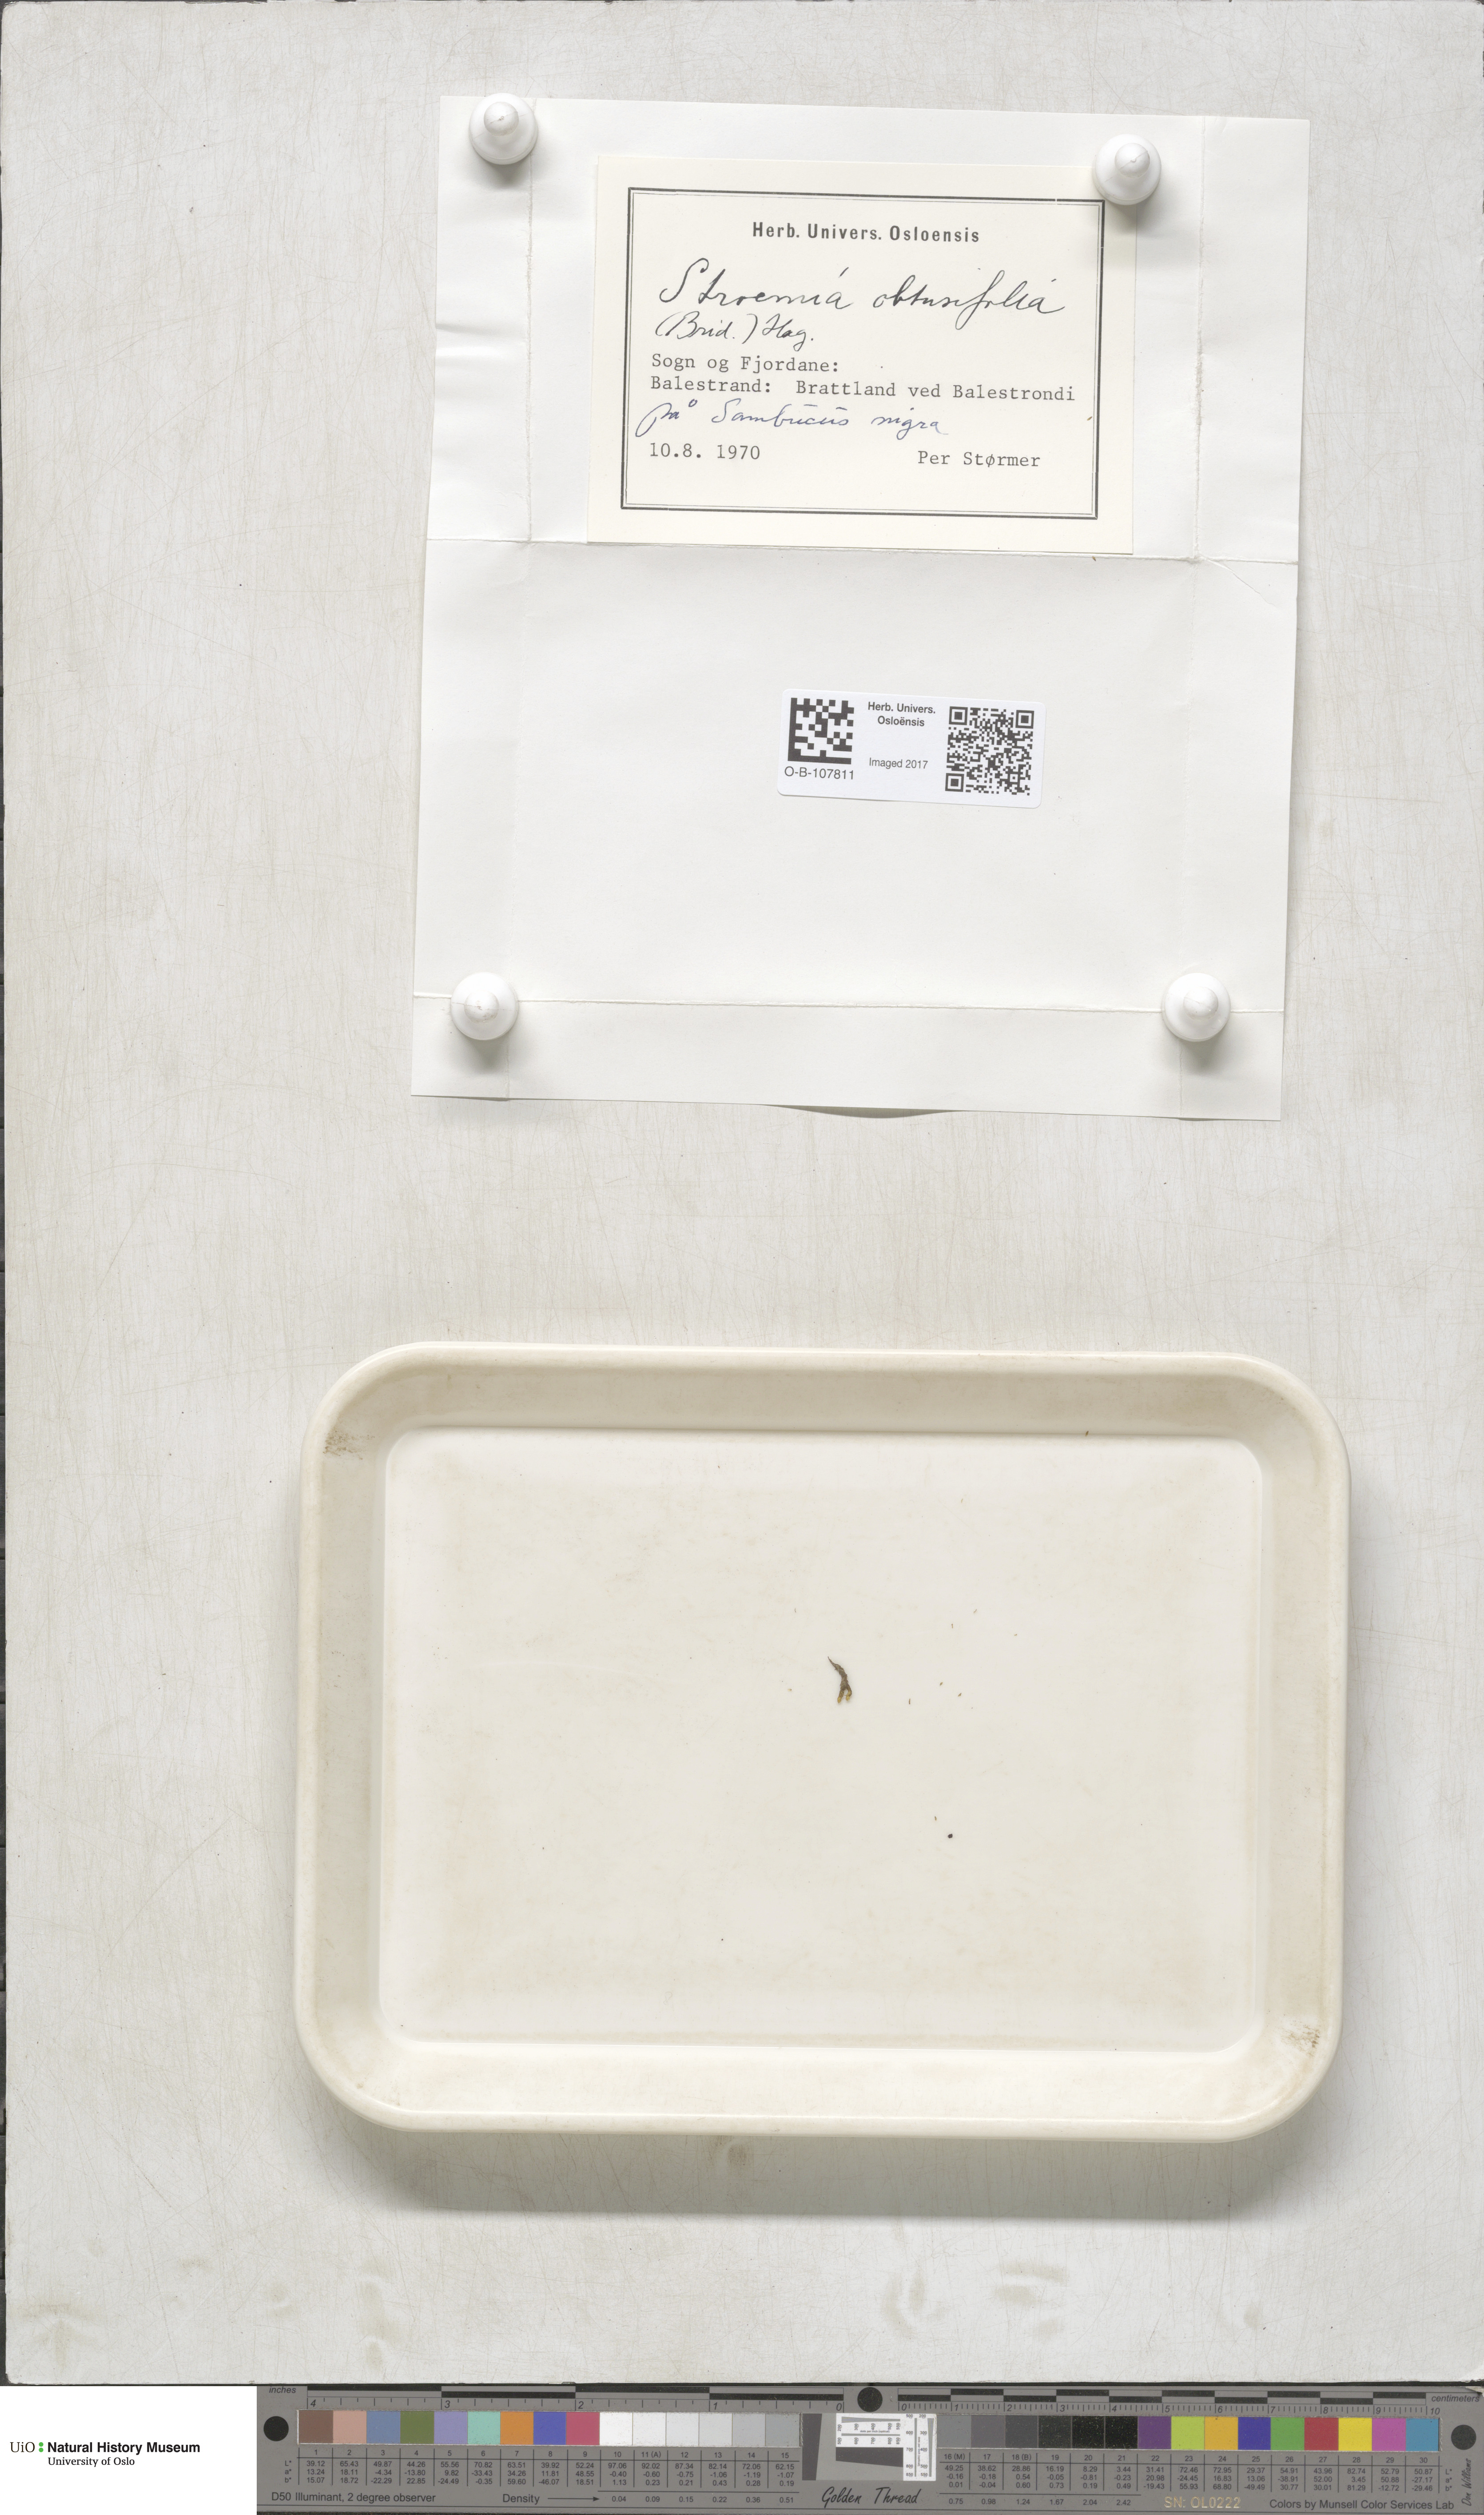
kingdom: Plantae
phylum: Bryophyta
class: Bryopsida
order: Orthotrichales
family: Orthotrichaceae
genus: Nyholmiella
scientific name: Nyholmiella obtusifolia
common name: Blunt-leaved bristle-moss
